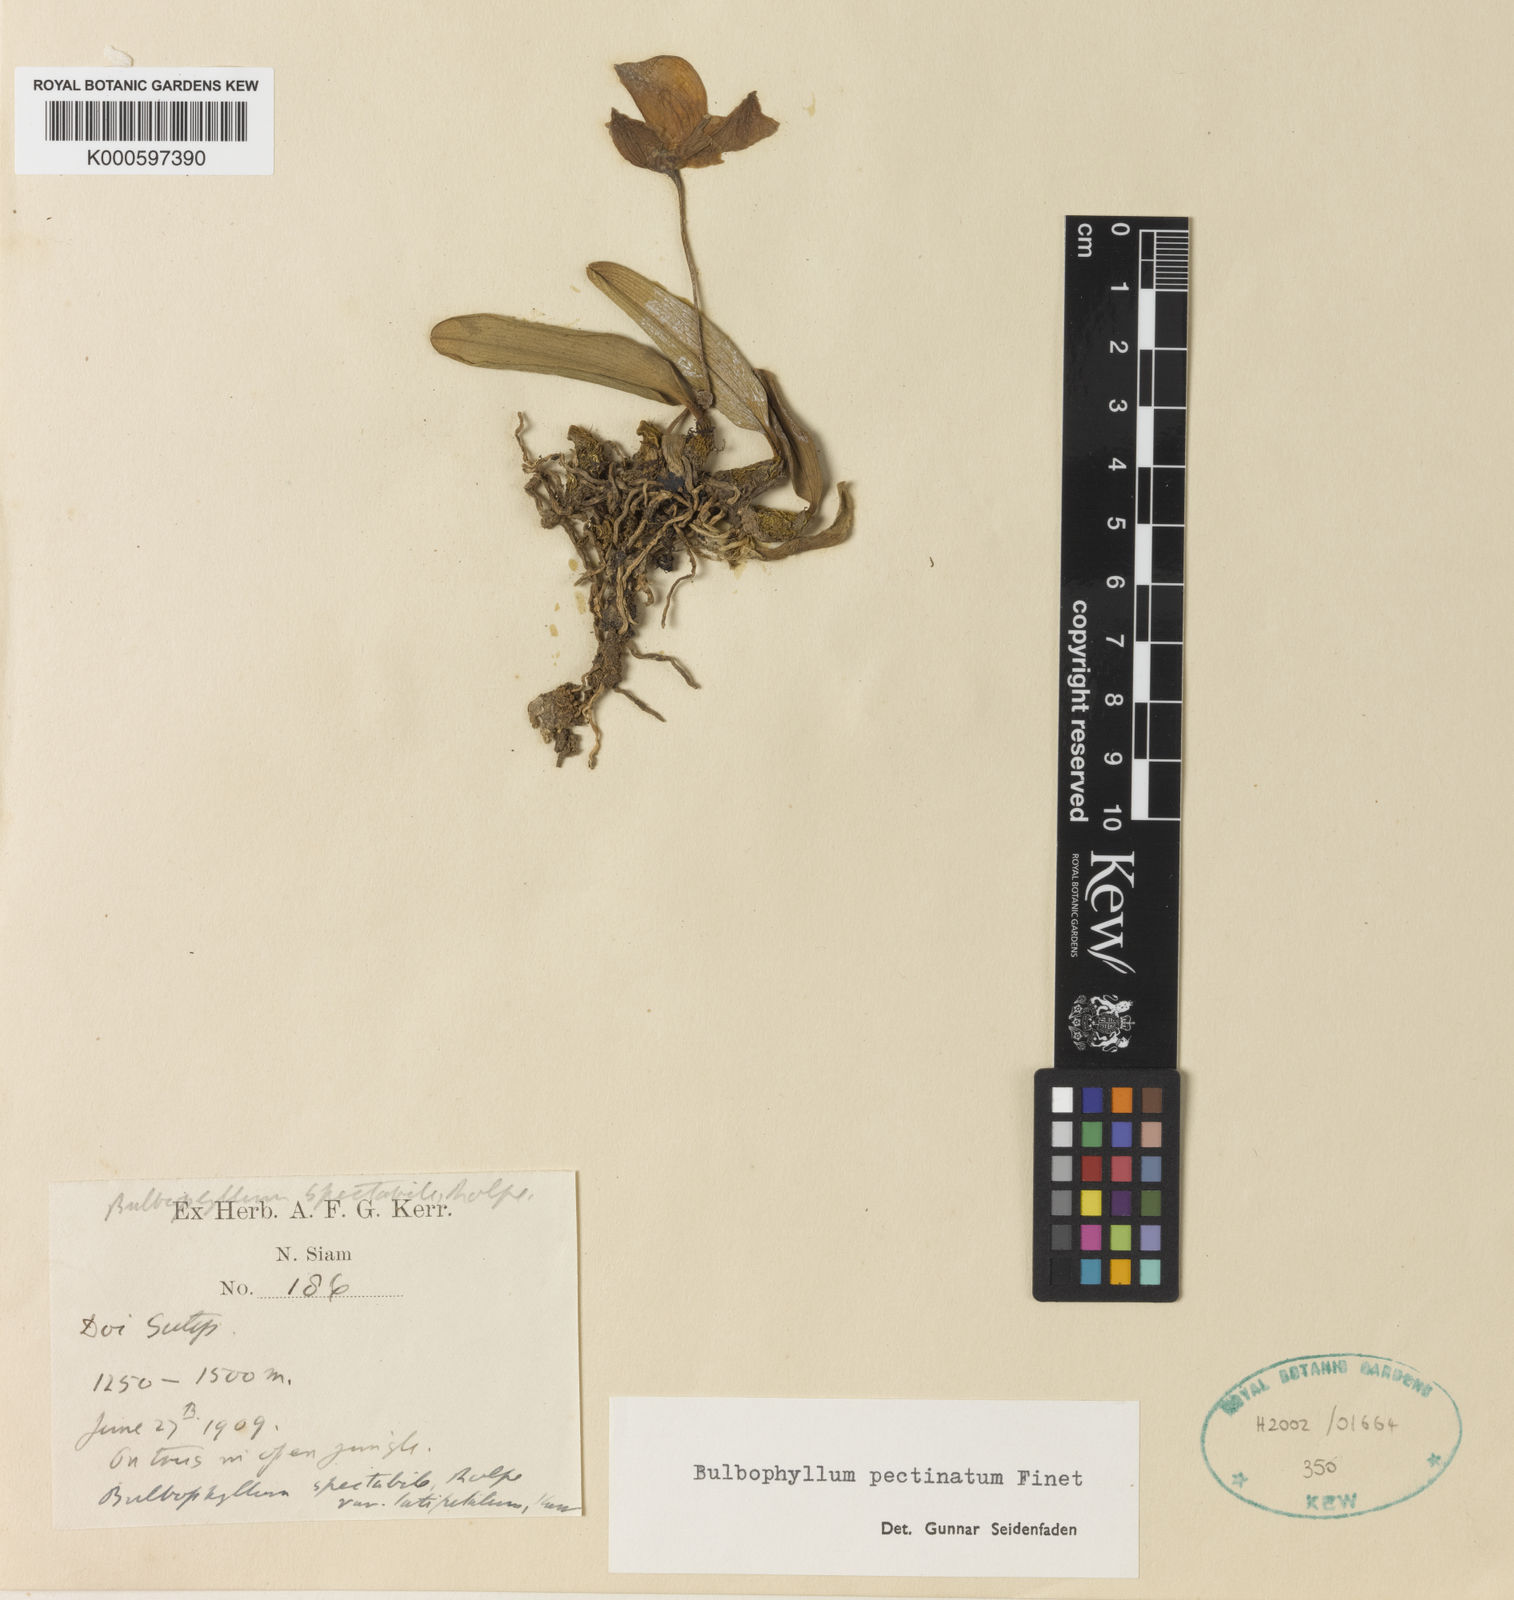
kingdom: Plantae
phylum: Tracheophyta
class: Liliopsida
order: Asparagales
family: Orchidaceae
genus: Bulbophyllum
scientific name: Bulbophyllum pectinatum
